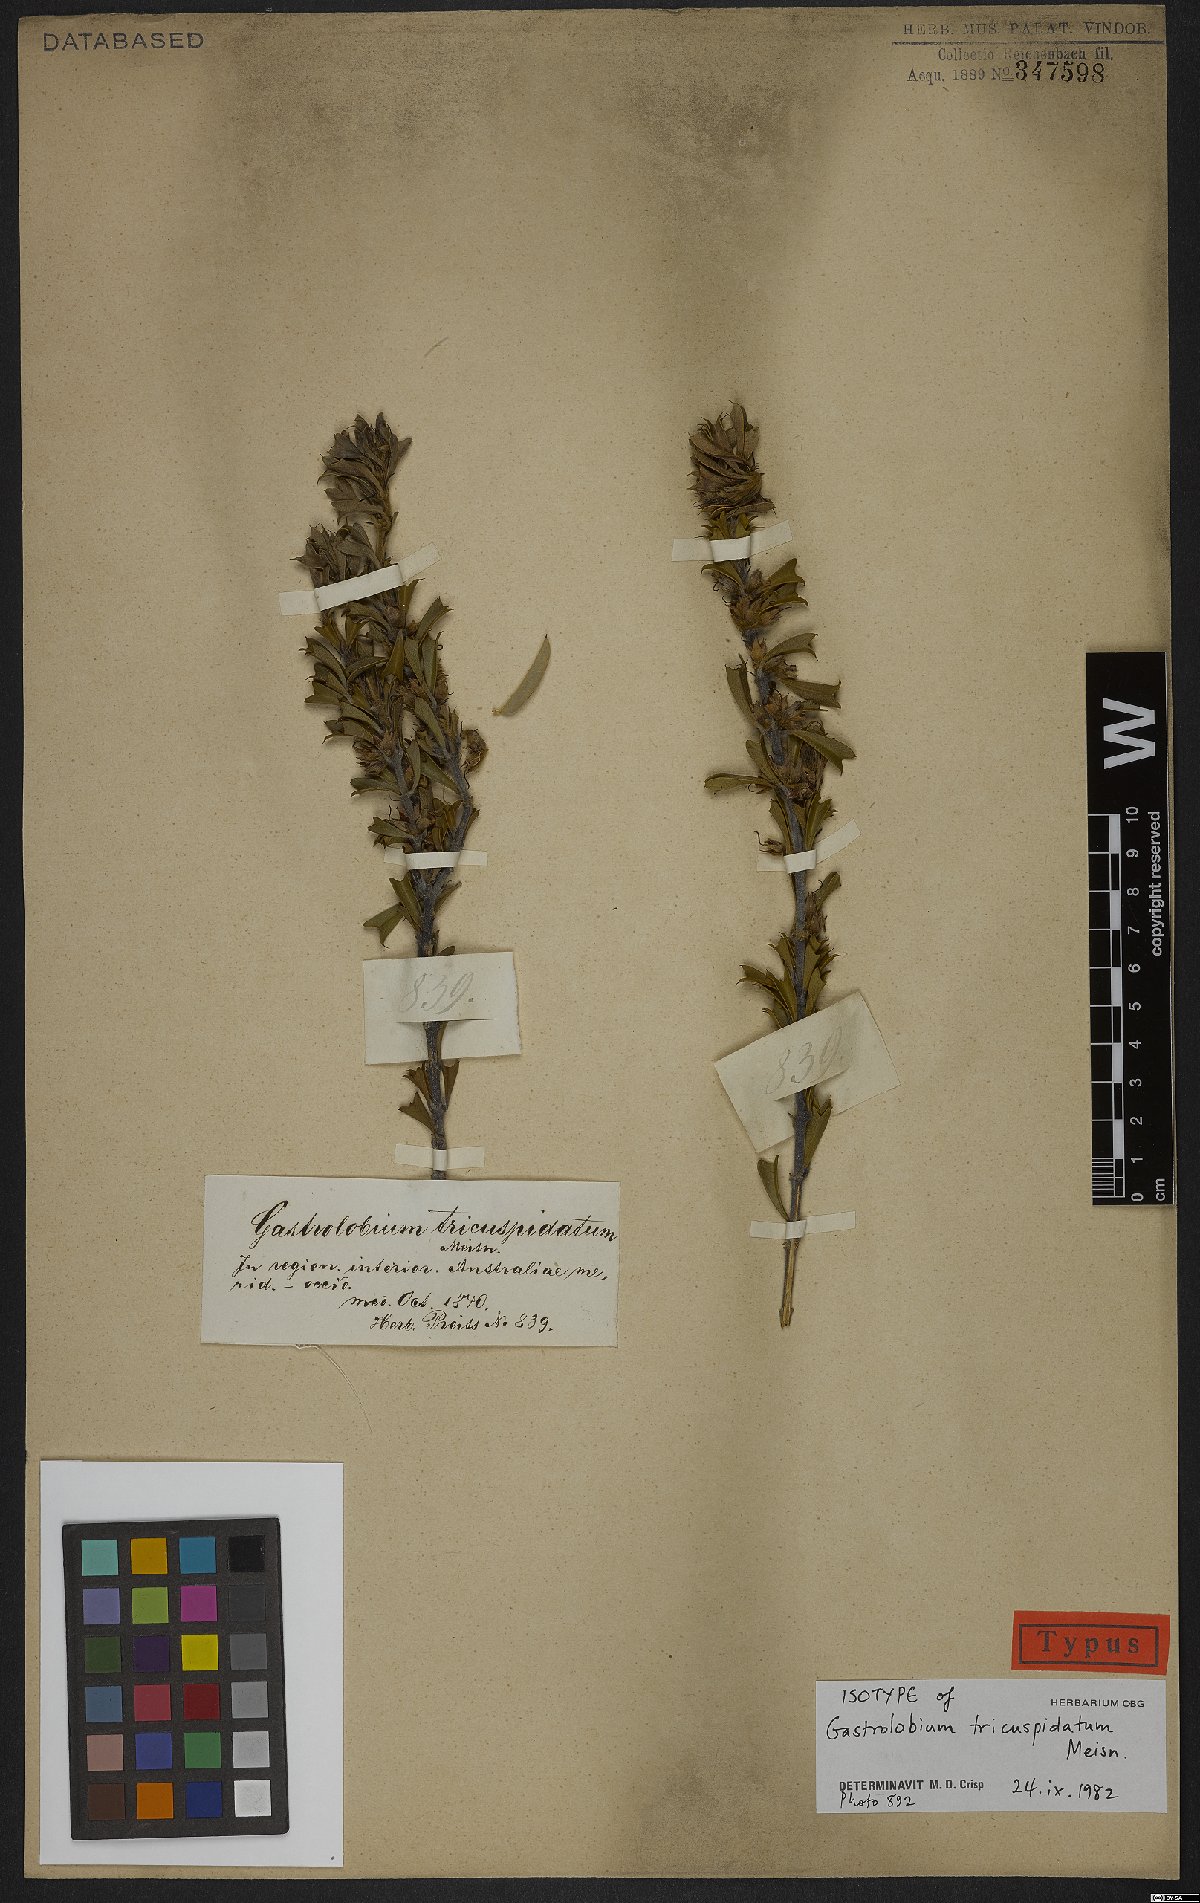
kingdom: Plantae
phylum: Tracheophyta
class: Magnoliopsida
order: Fabales
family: Fabaceae
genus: Gastrolobium
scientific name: Gastrolobium tricuspidatum
